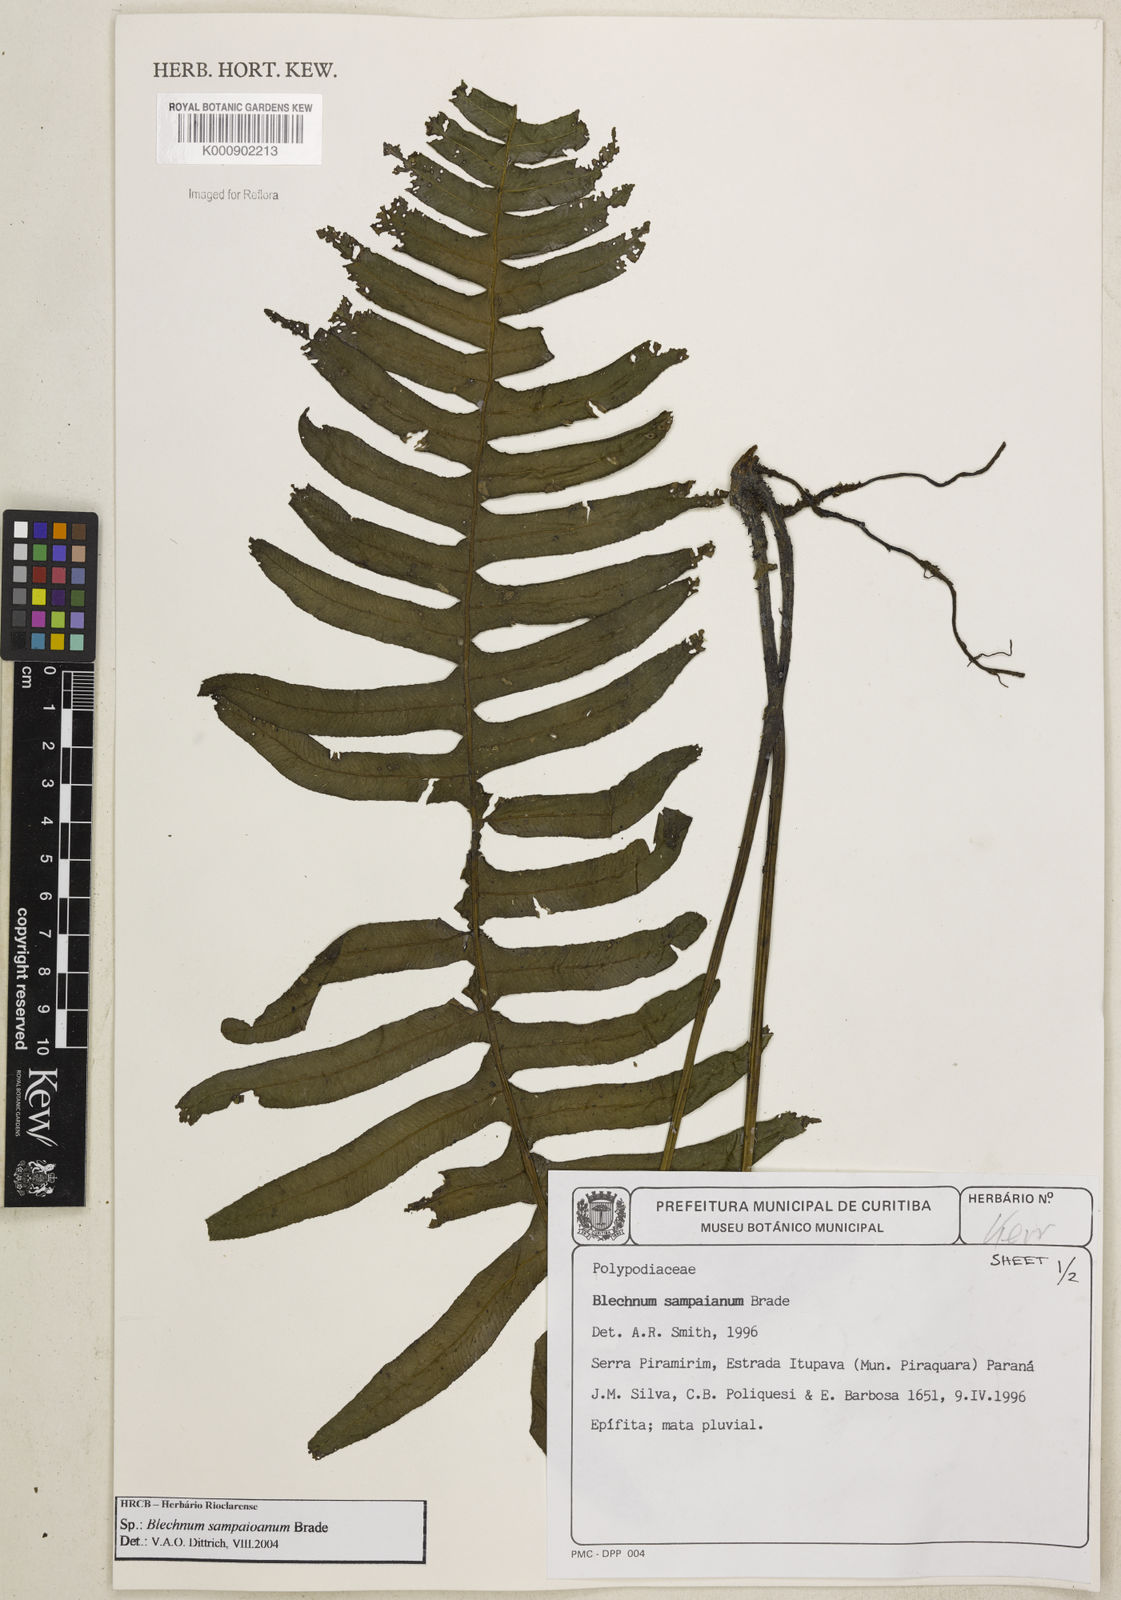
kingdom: Plantae
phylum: Tracheophyta
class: Polypodiopsida
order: Polypodiales
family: Blechnaceae
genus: Lomariocycas
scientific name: Lomariocycas schomburgkii
